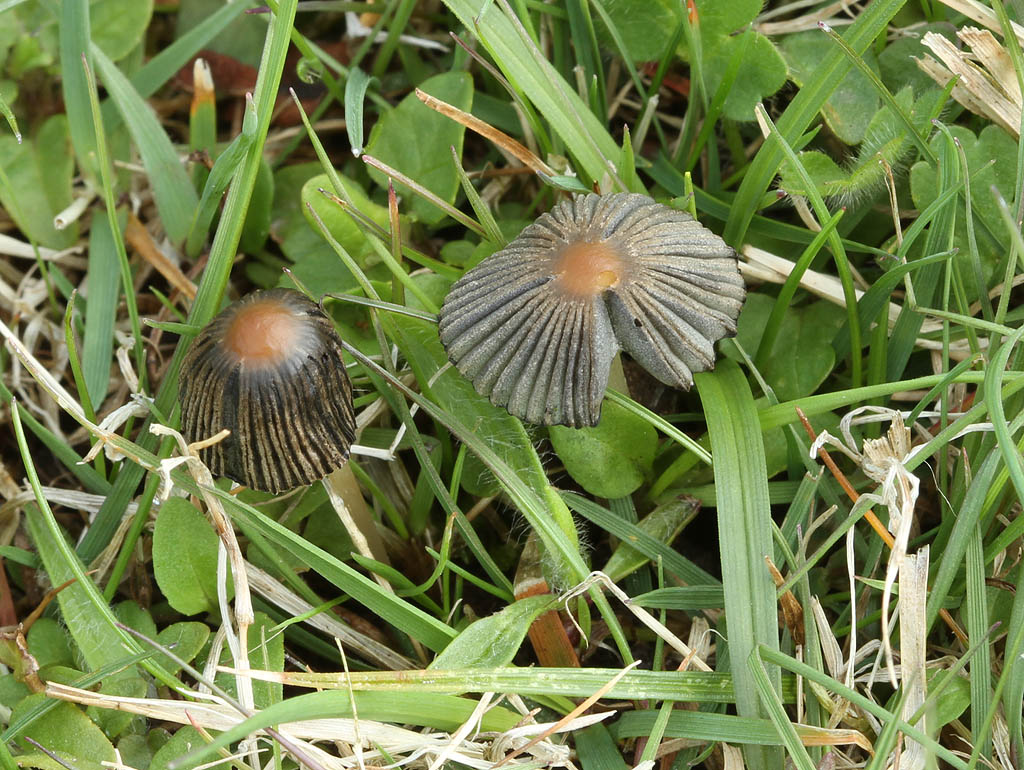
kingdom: Fungi
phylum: Basidiomycota
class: Agaricomycetes
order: Agaricales
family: Psathyrellaceae
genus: Parasola
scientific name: Parasola schroeteri
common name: bredsporet hjulhat
